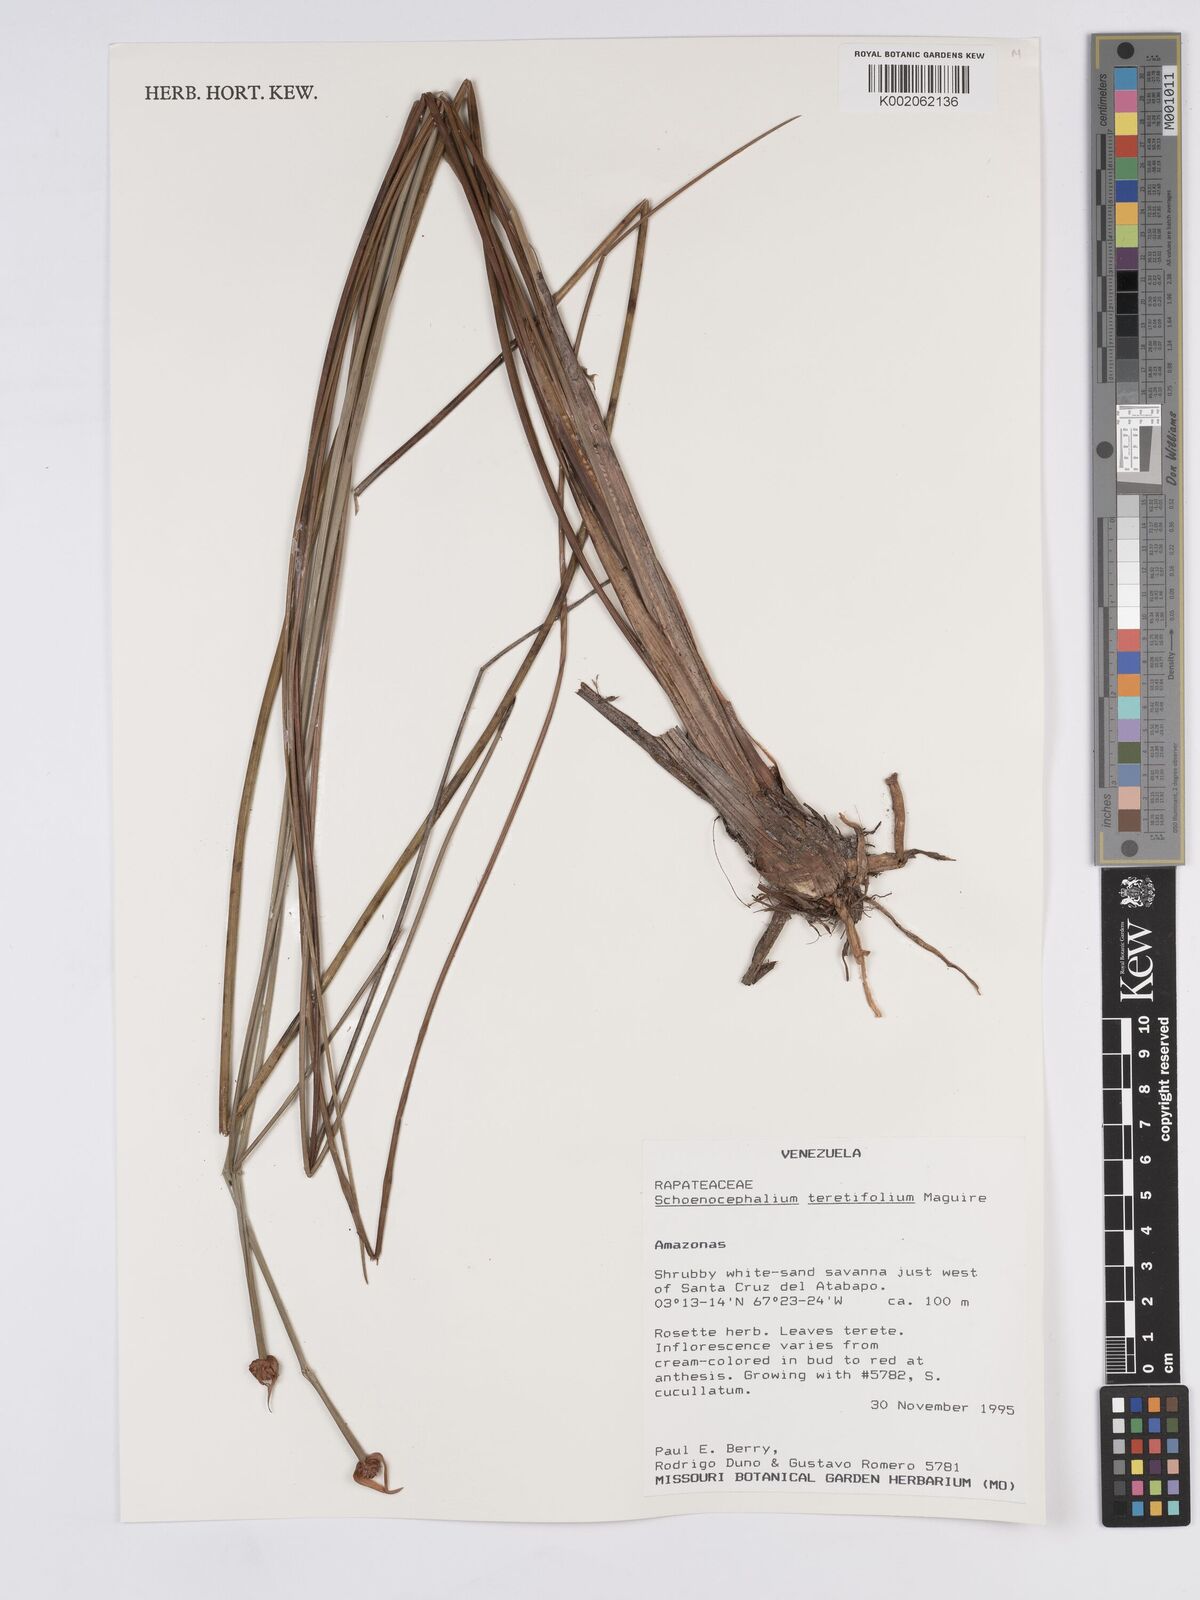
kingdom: Plantae
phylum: Tracheophyta
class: Liliopsida
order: Poales
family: Rapateaceae
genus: Schoenocephalium
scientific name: Schoenocephalium teretifolium
